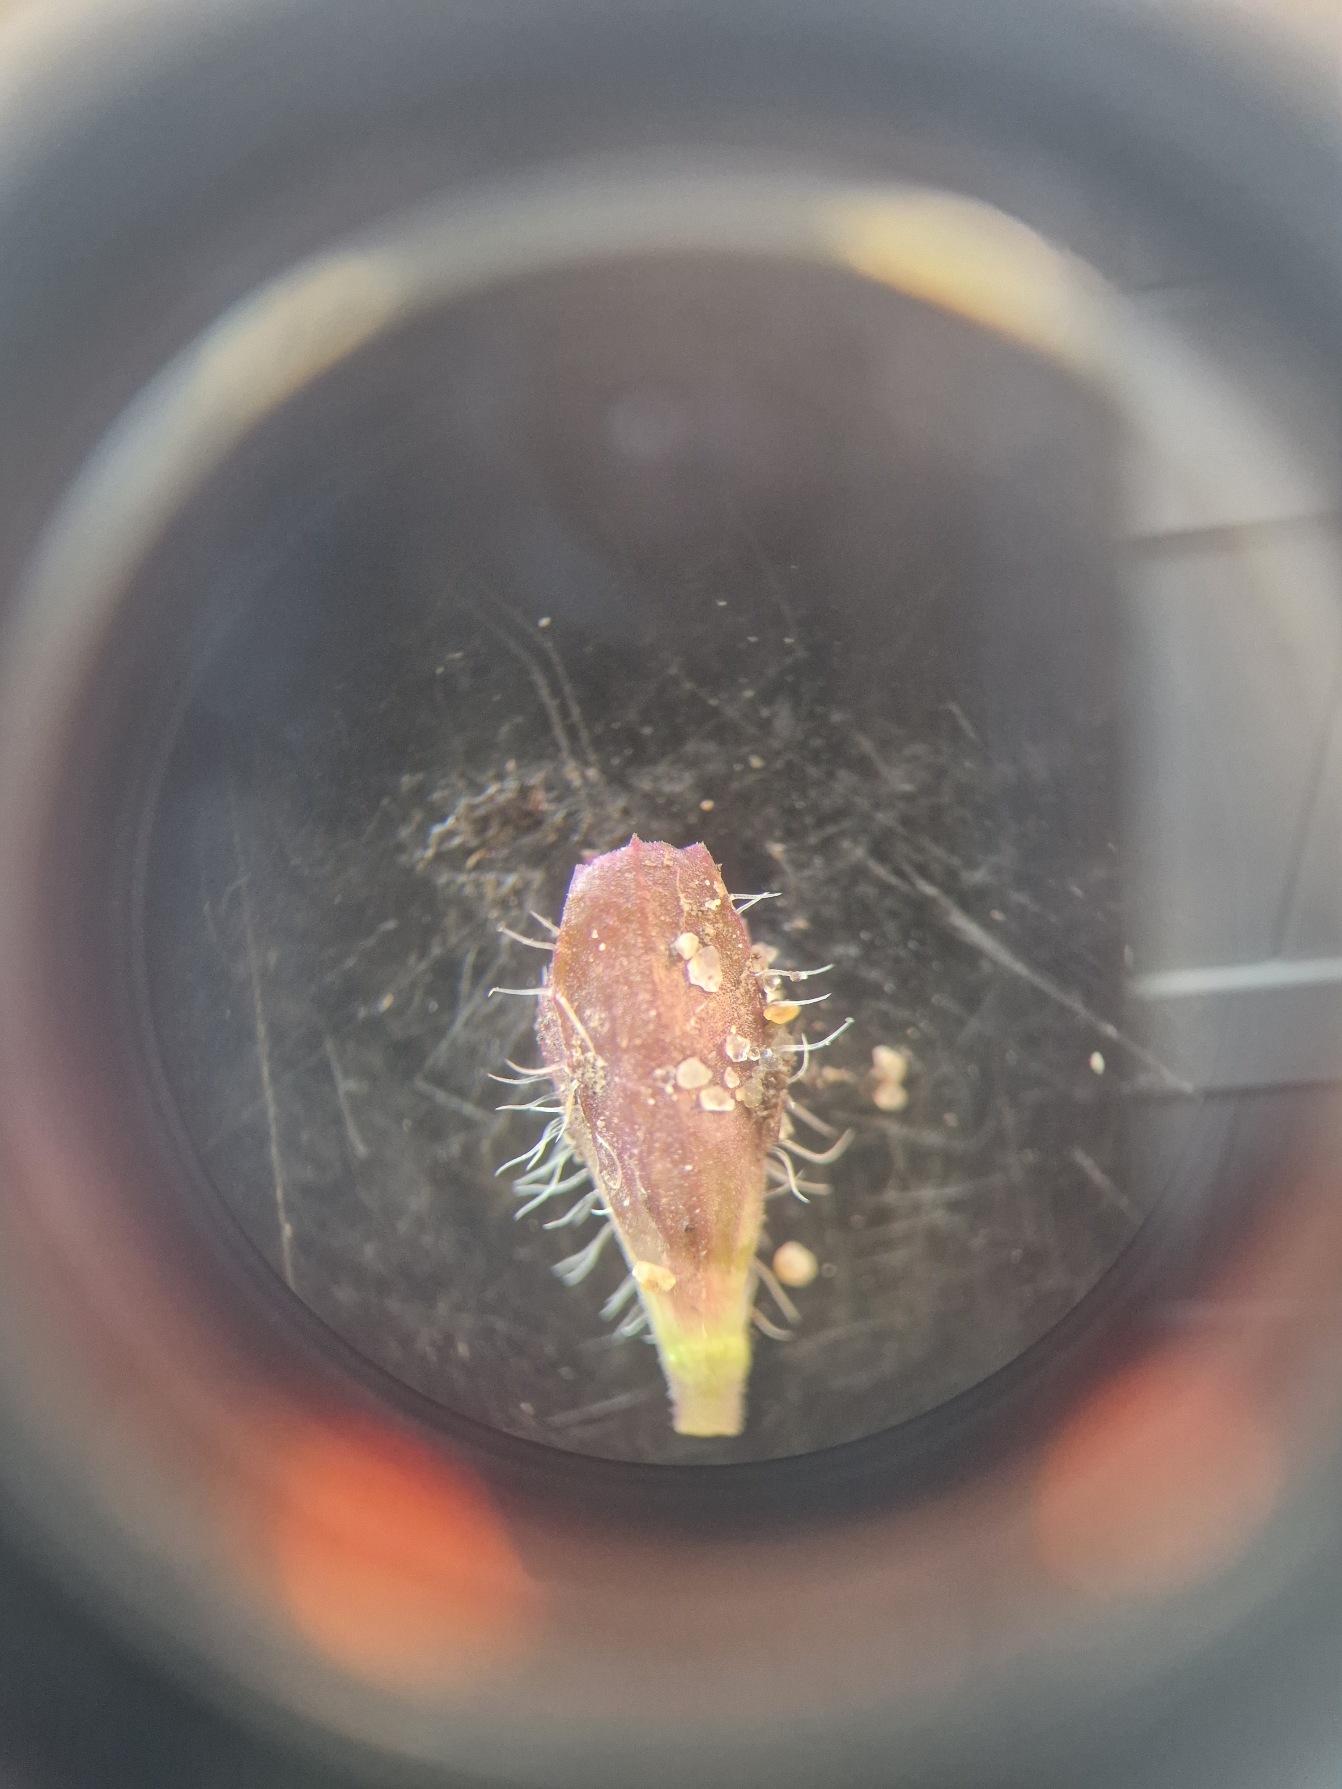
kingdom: Plantae
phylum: Tracheophyta
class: Magnoliopsida
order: Lamiales
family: Lamiaceae
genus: Prunella
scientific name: Prunella vulgaris
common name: Almindelig brunelle
